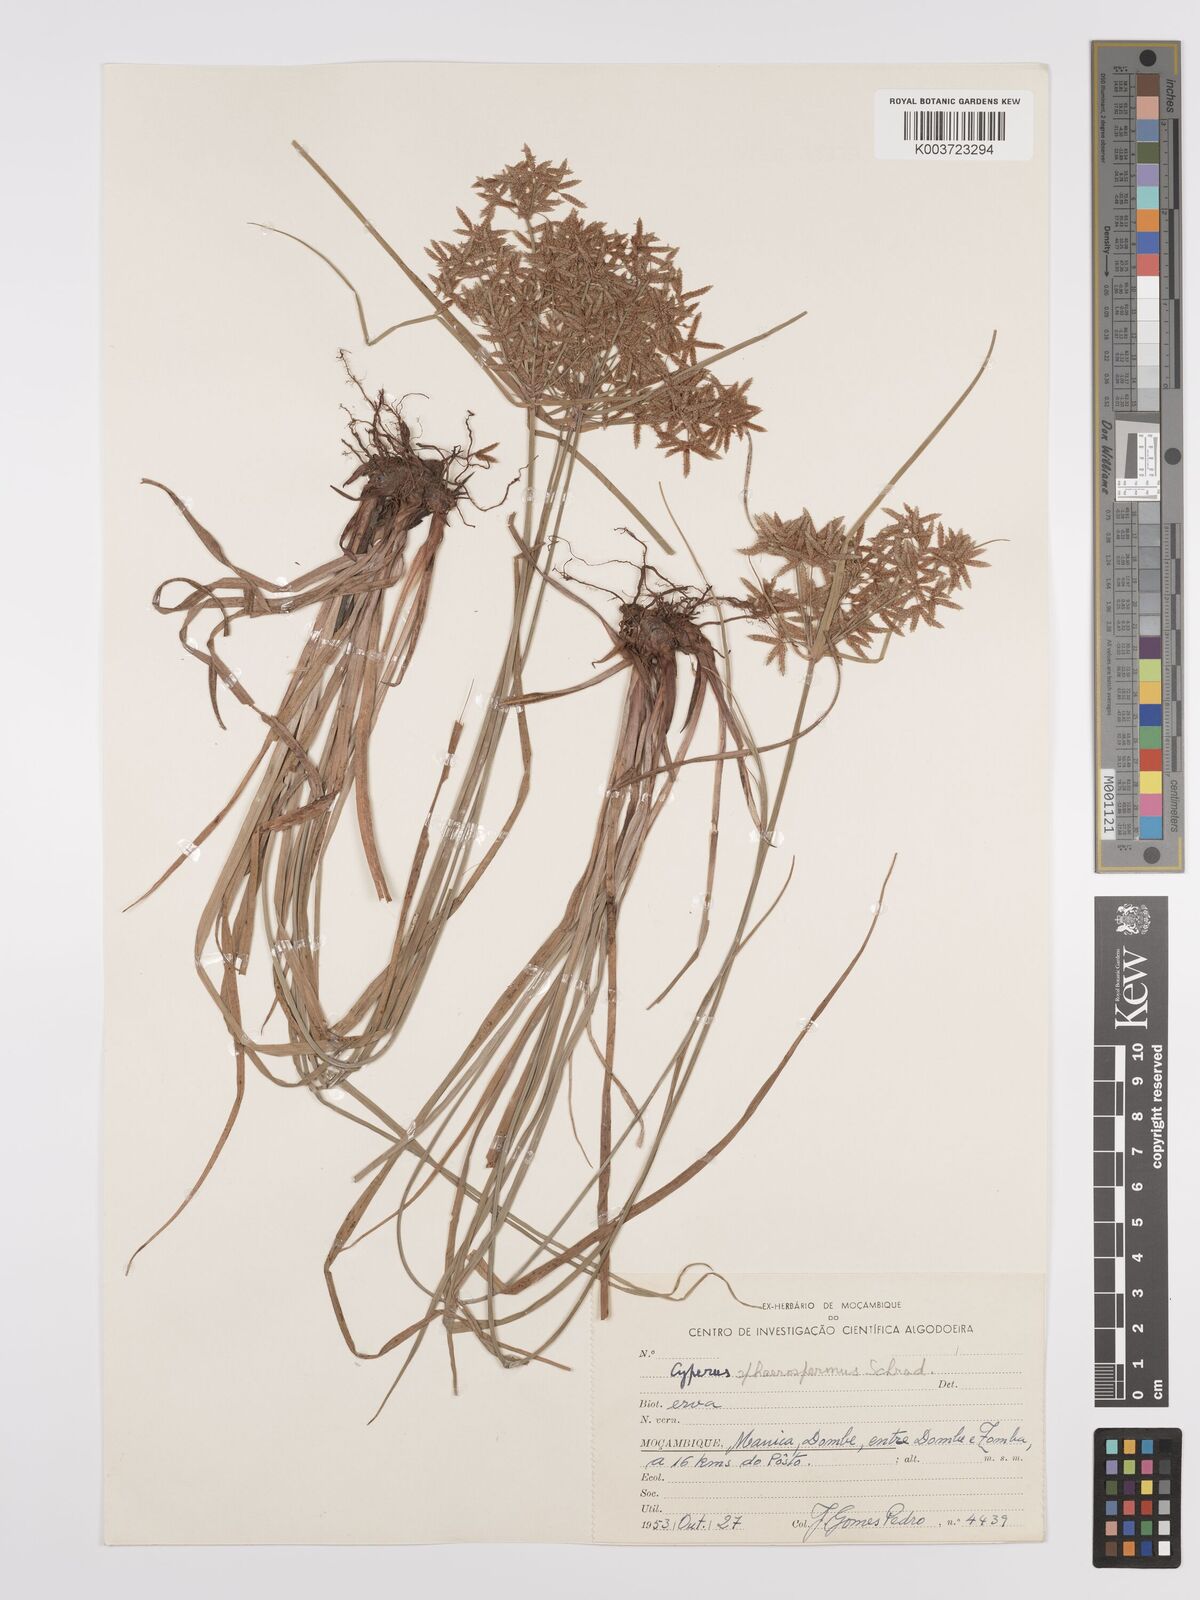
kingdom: Plantae
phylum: Tracheophyta
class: Liliopsida
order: Poales
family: Cyperaceae
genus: Cyperus
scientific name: Cyperus denudatus
